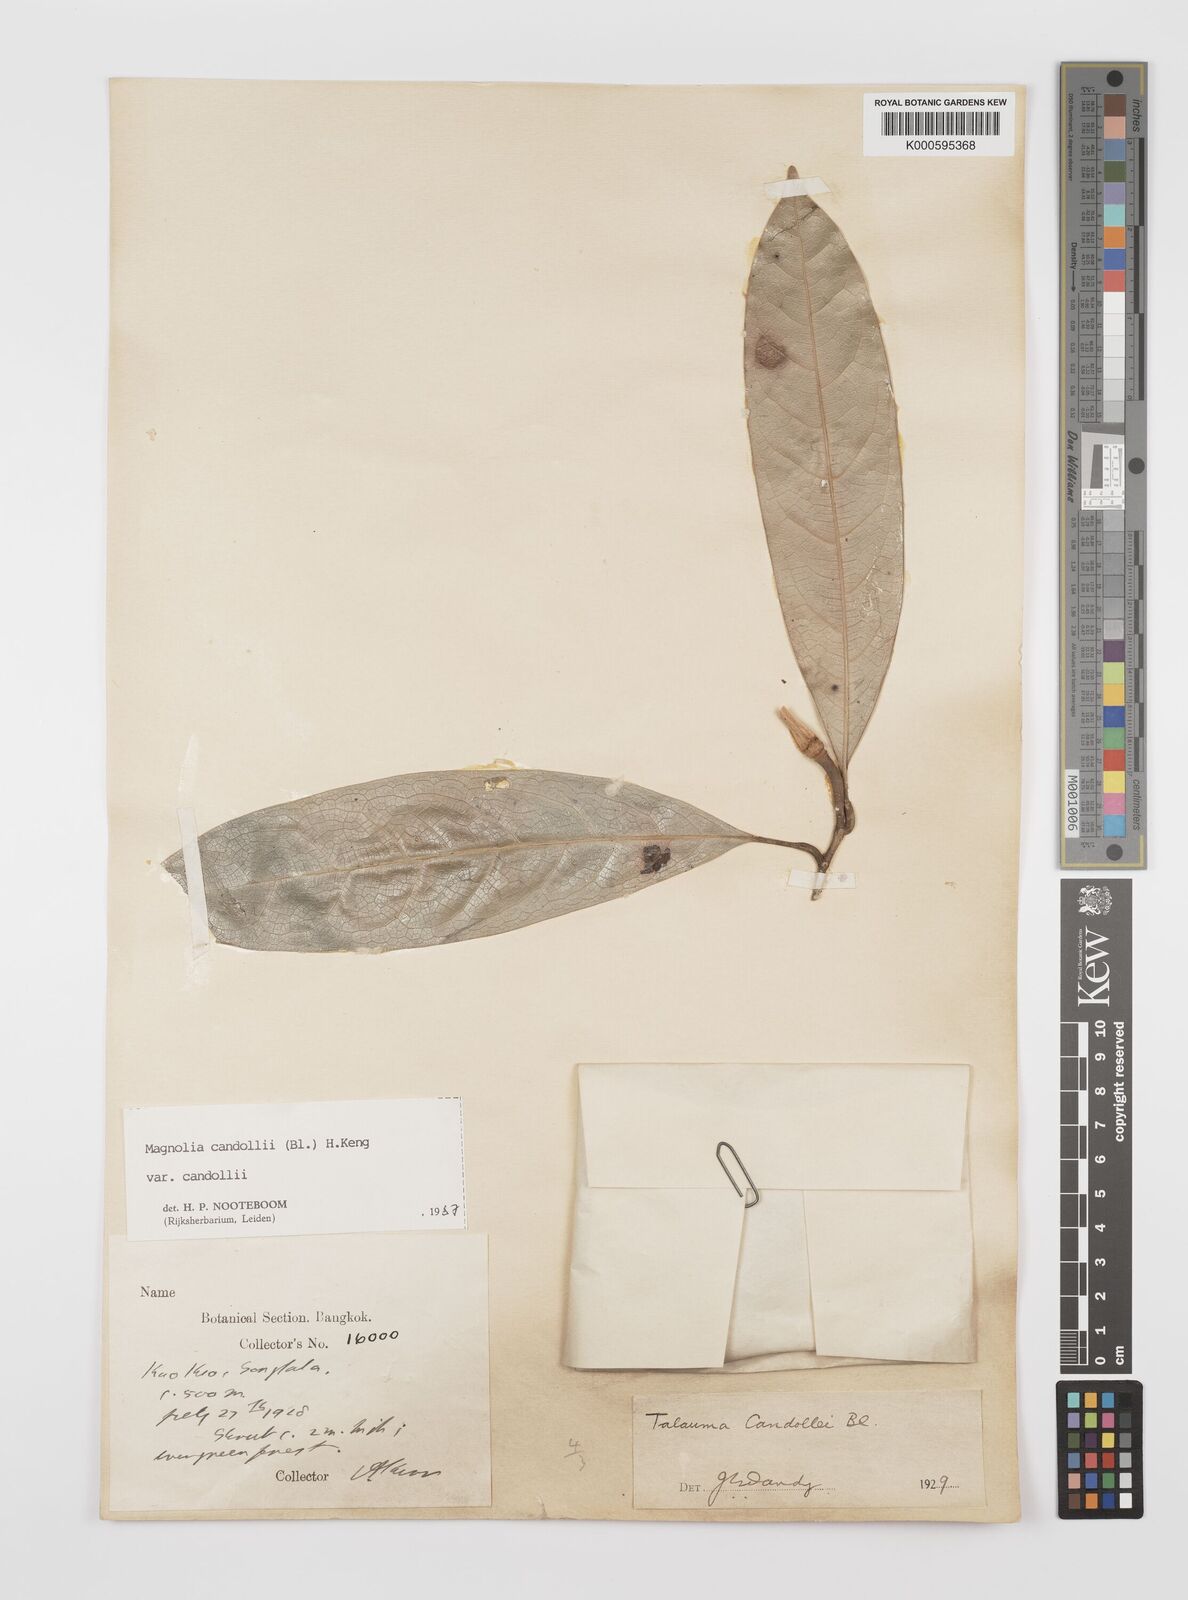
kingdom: Plantae
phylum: Tracheophyta
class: Magnoliopsida
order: Magnoliales
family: Magnoliaceae
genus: Magnolia
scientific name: Magnolia liliifera
